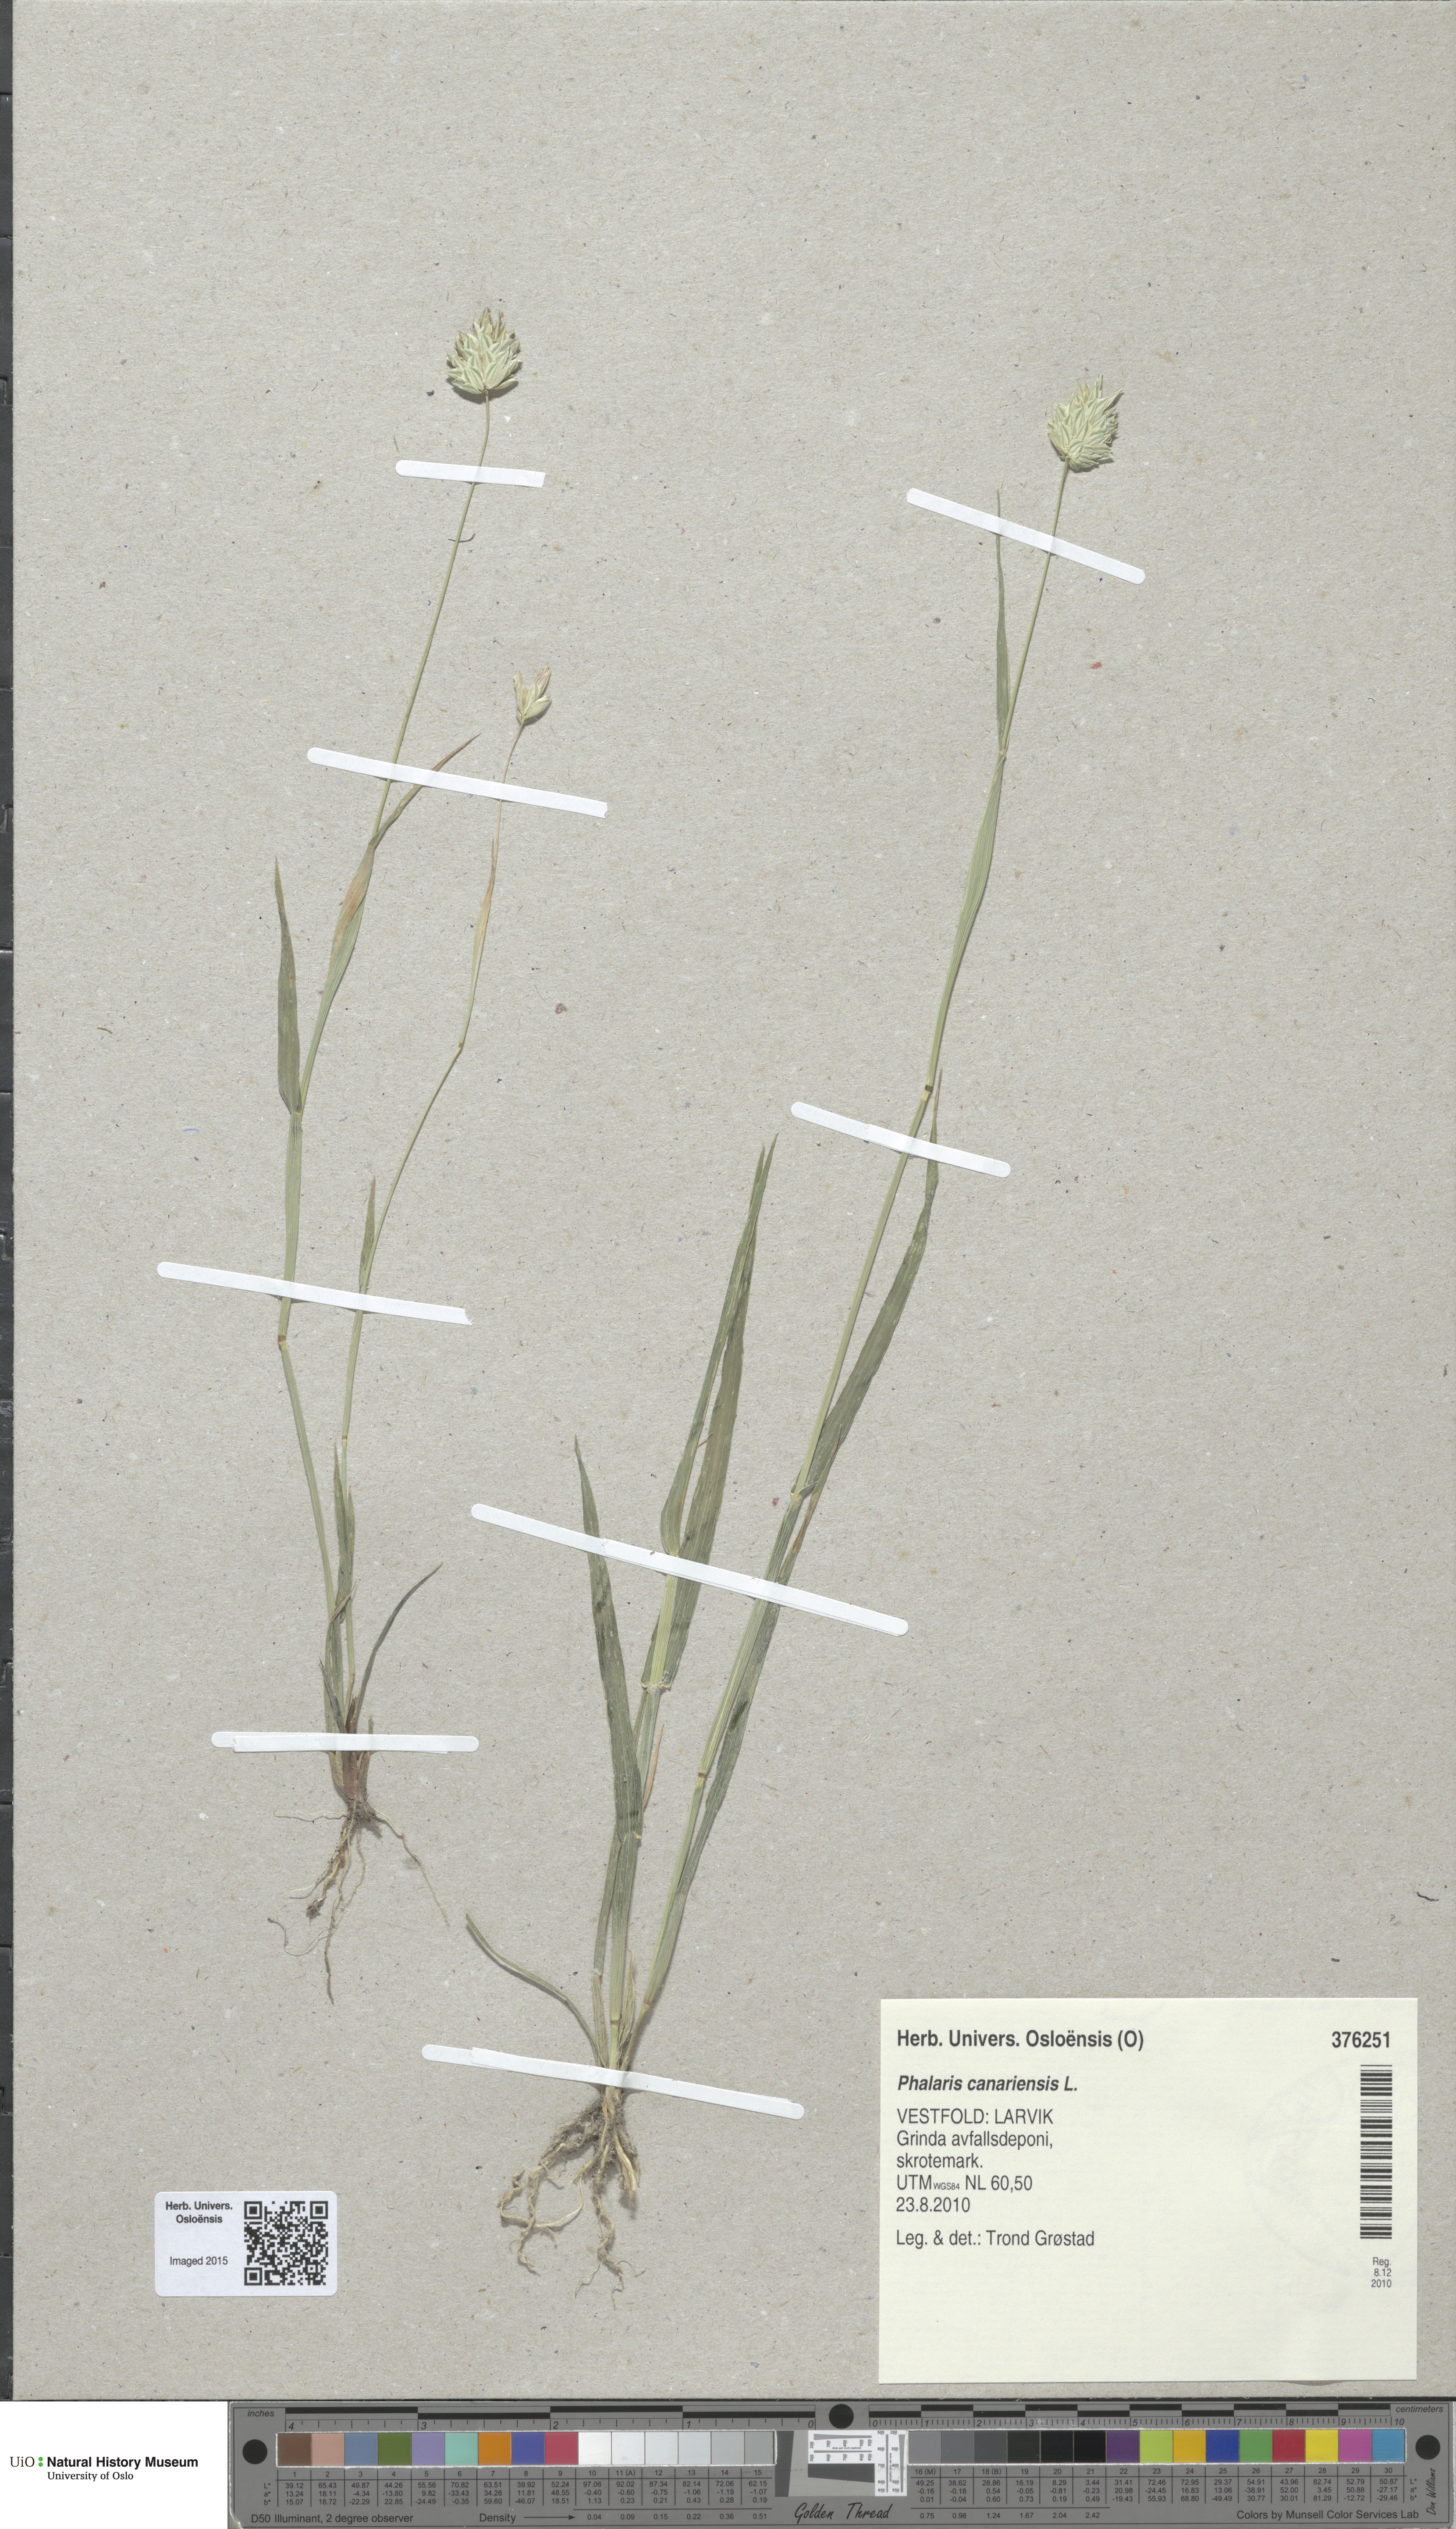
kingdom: Plantae
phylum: Tracheophyta
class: Liliopsida
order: Poales
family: Poaceae
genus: Phalaris
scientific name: Phalaris canariensis
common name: Annual canarygrass
